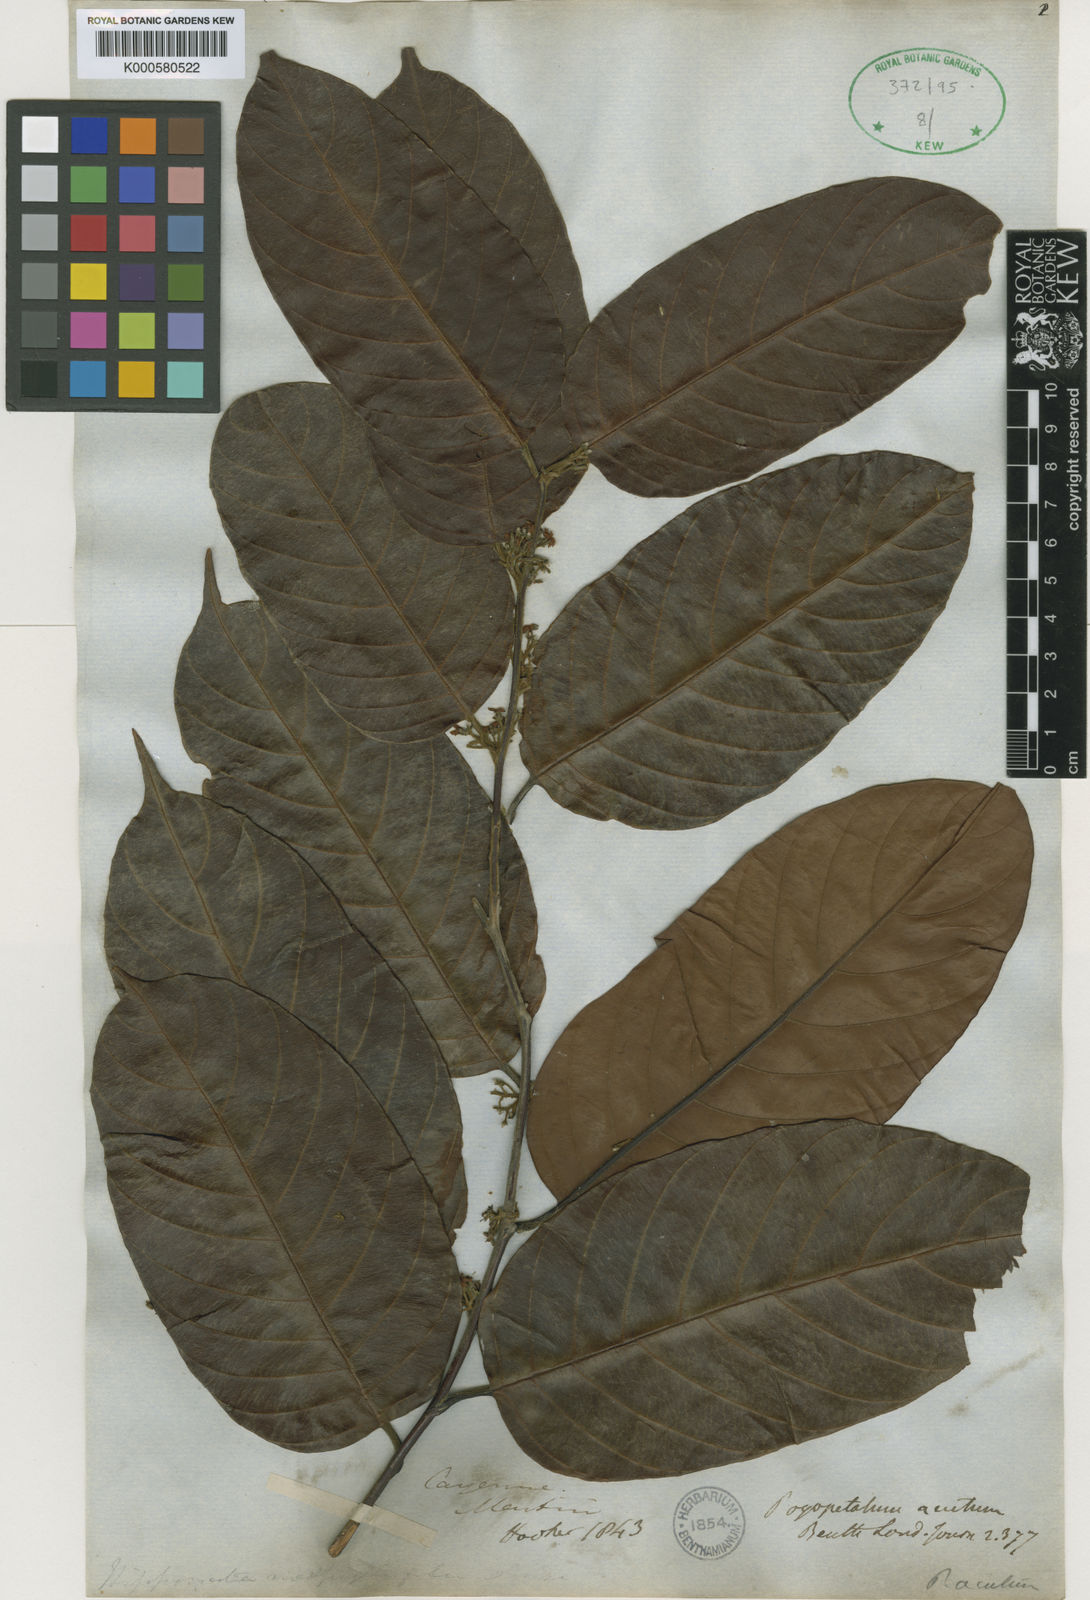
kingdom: Plantae
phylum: Tracheophyta
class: Magnoliopsida
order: Metteniusales
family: Metteniusaceae
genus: Emmotum
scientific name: Emmotum fagifolium
